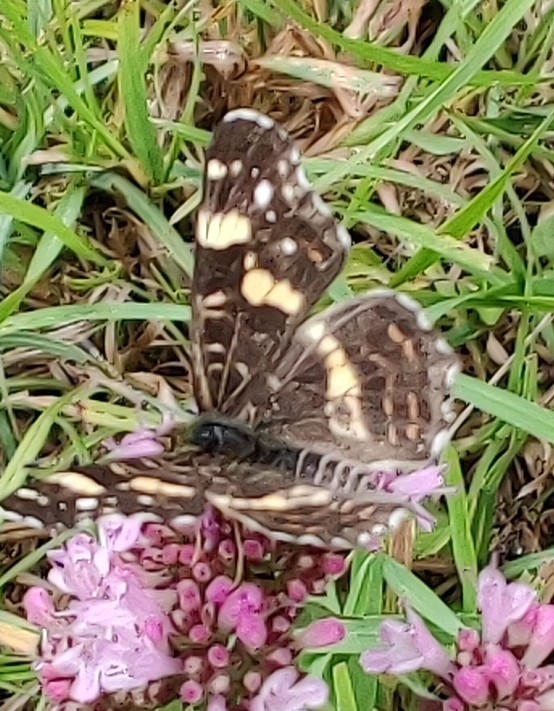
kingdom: Animalia
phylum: Arthropoda
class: Insecta
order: Lepidoptera
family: Nymphalidae
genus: Araschnia
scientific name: Araschnia levana
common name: Nældesommerfugl
